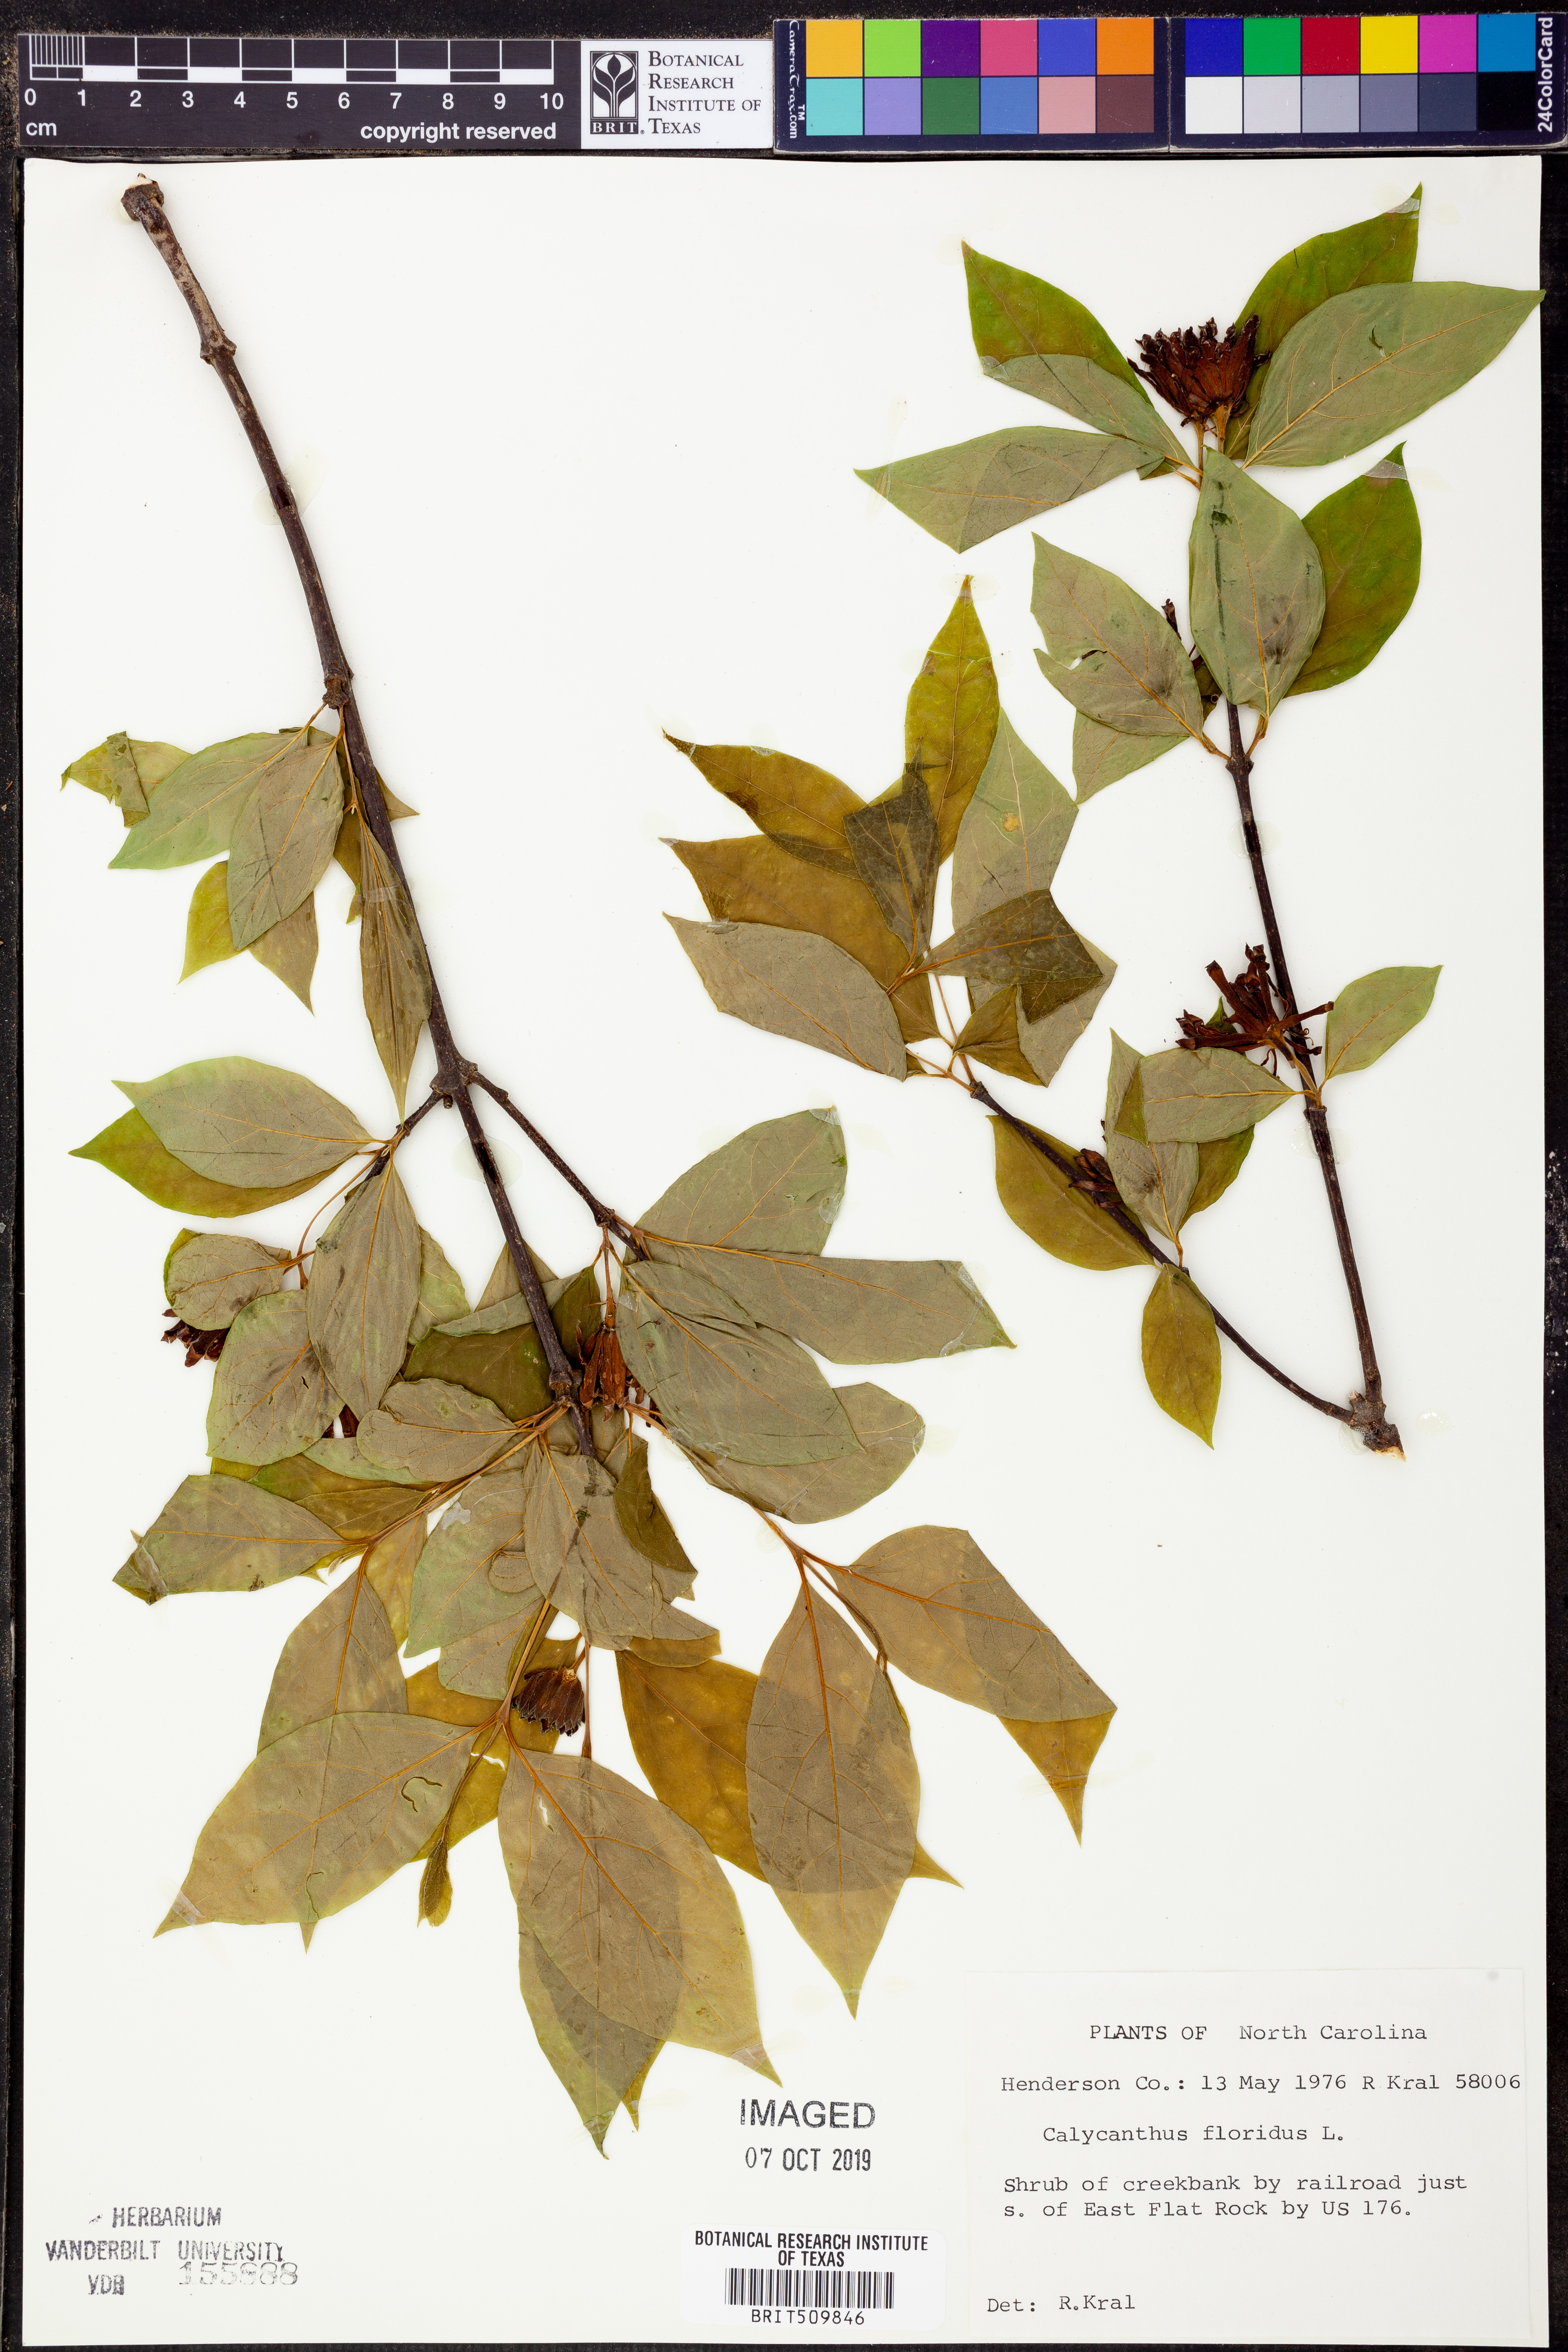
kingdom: Plantae
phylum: Tracheophyta
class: Magnoliopsida
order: Laurales
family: Calycanthaceae
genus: Calycanthus
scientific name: Calycanthus floridus
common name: Carolina-allspice
